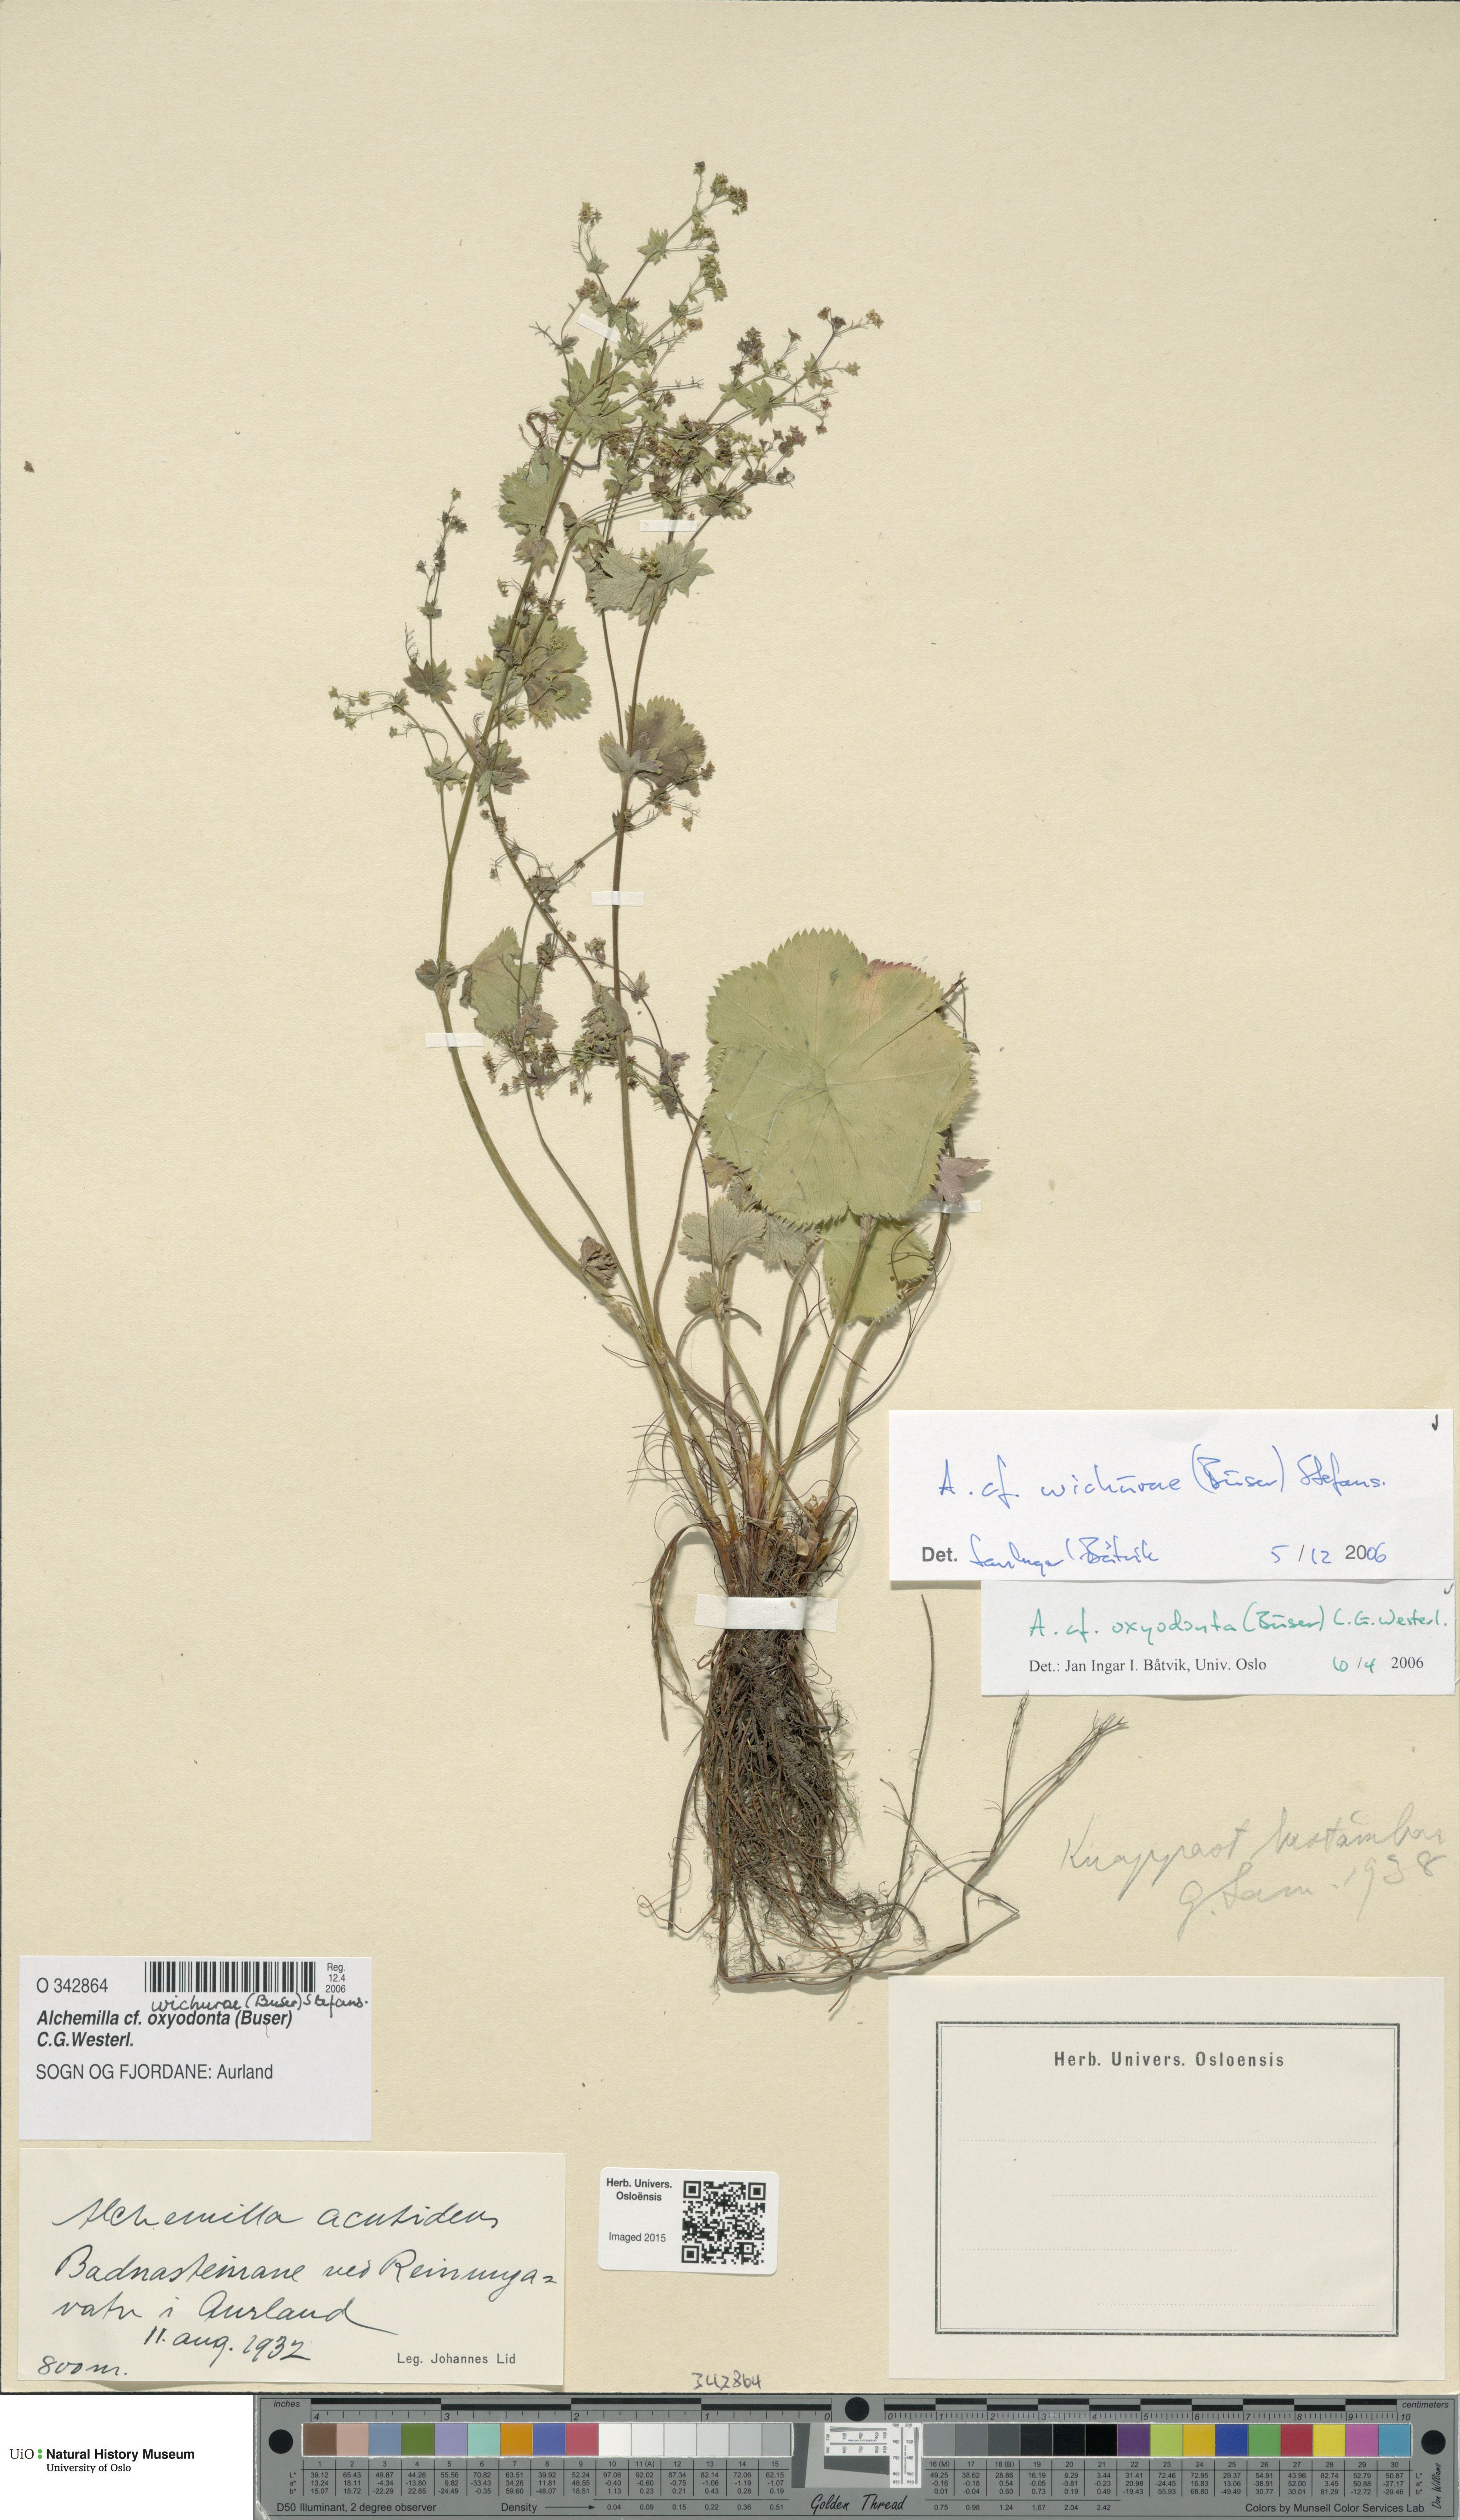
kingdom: Plantae
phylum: Tracheophyta
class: Magnoliopsida
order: Rosales
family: Rosaceae
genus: Alchemilla
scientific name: Alchemilla wichurae
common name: Rock lady's mantle
